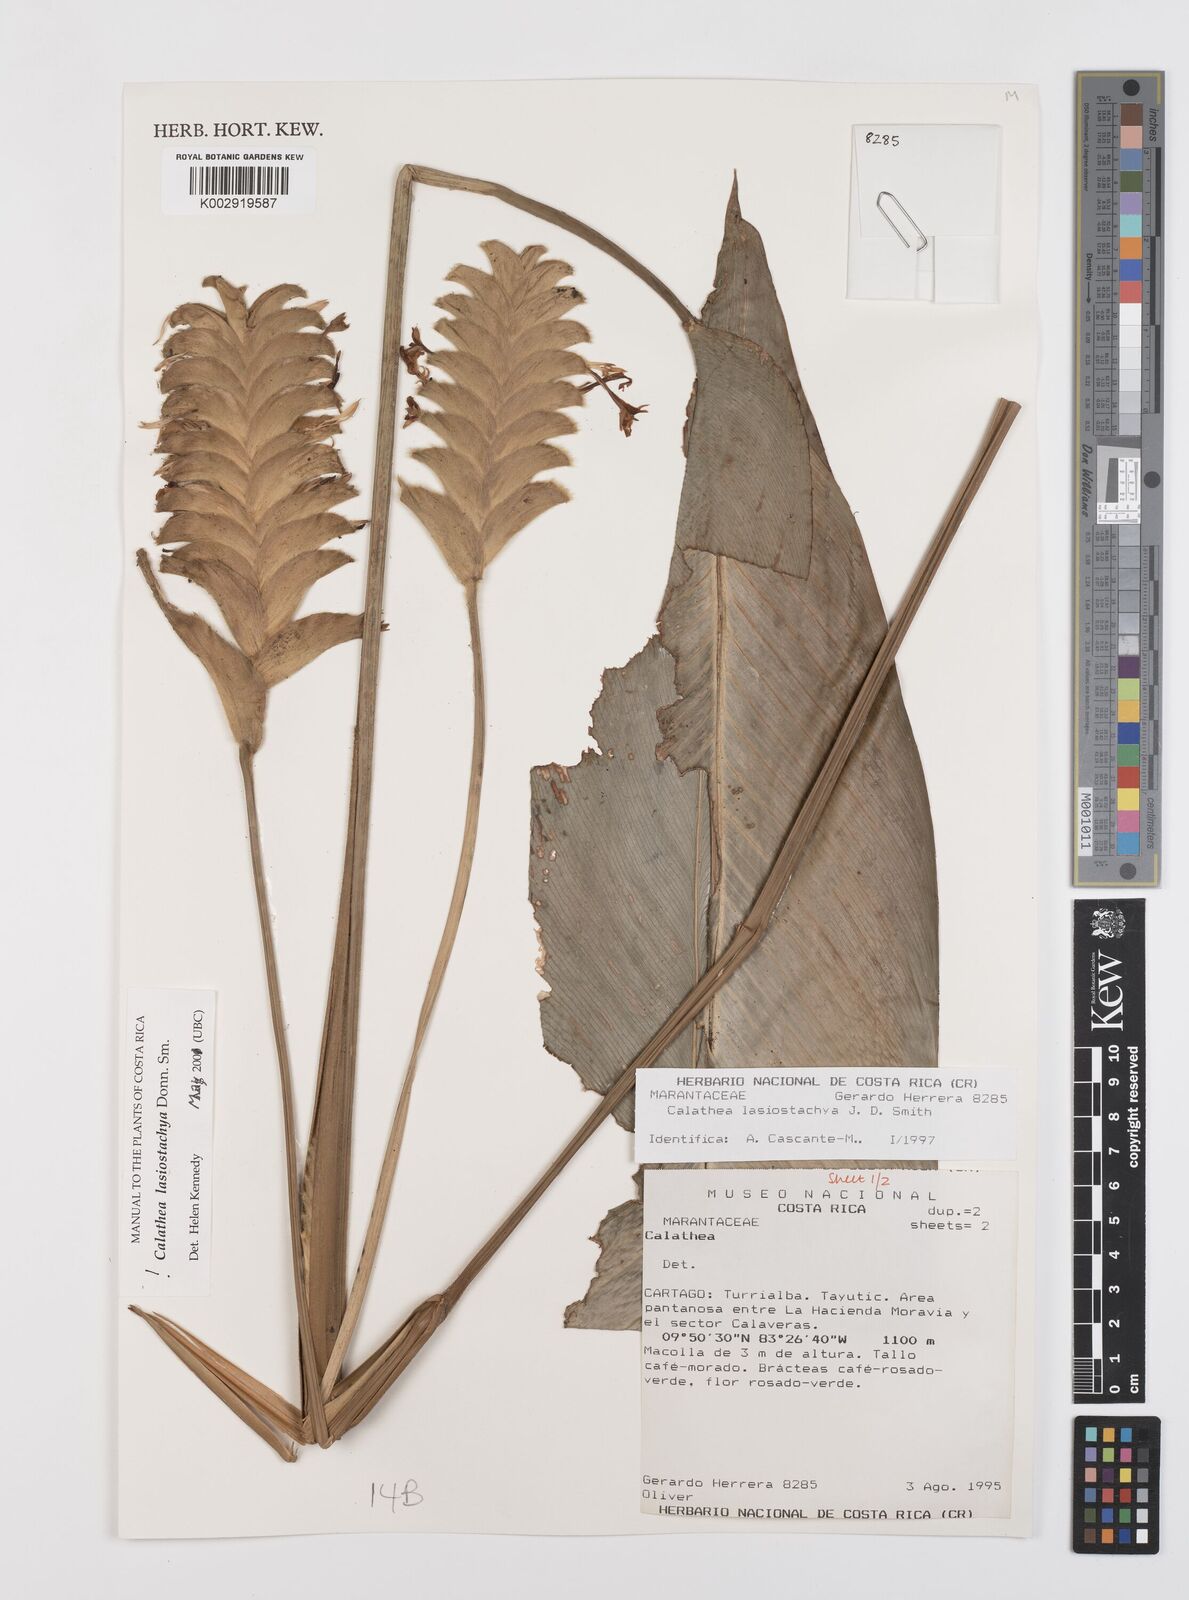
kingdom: Plantae
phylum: Tracheophyta
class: Liliopsida
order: Zingiberales
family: Marantaceae
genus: Calathea
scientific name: Calathea lasiostachya
